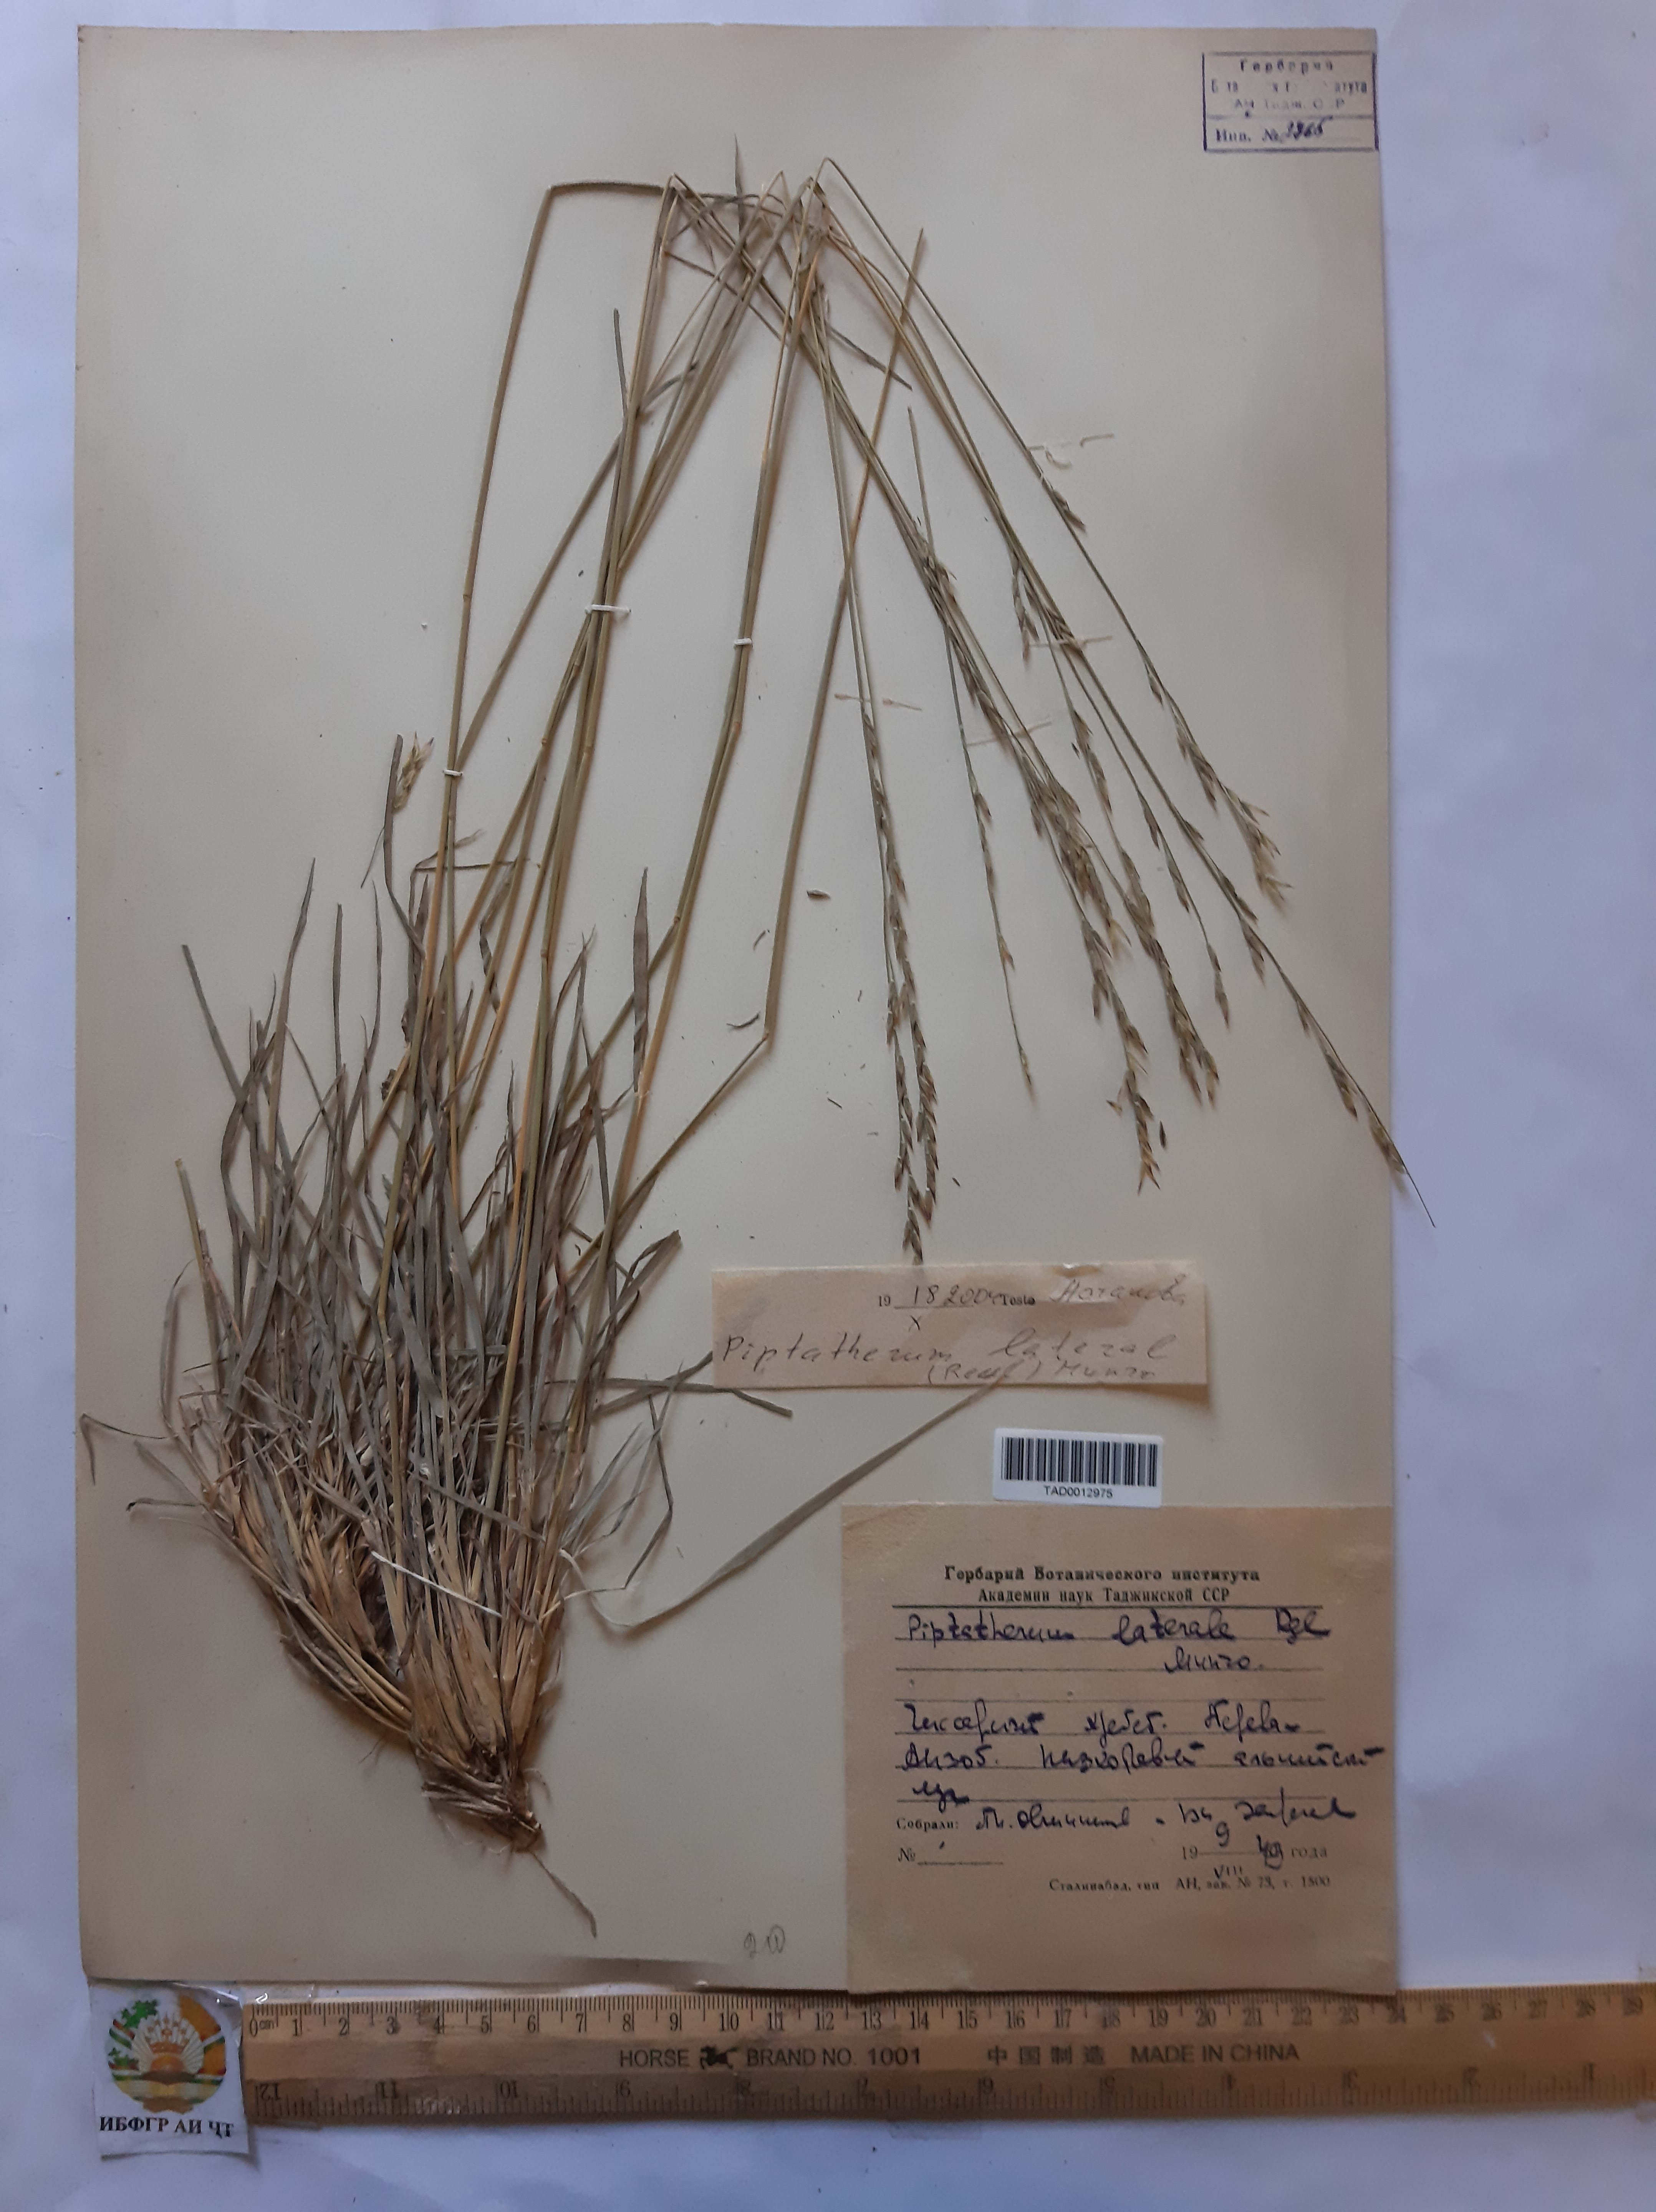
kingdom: Plantae
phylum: Tracheophyta
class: Liliopsida
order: Poales
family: Poaceae
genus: Piptatherum
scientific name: Piptatherum laterale
